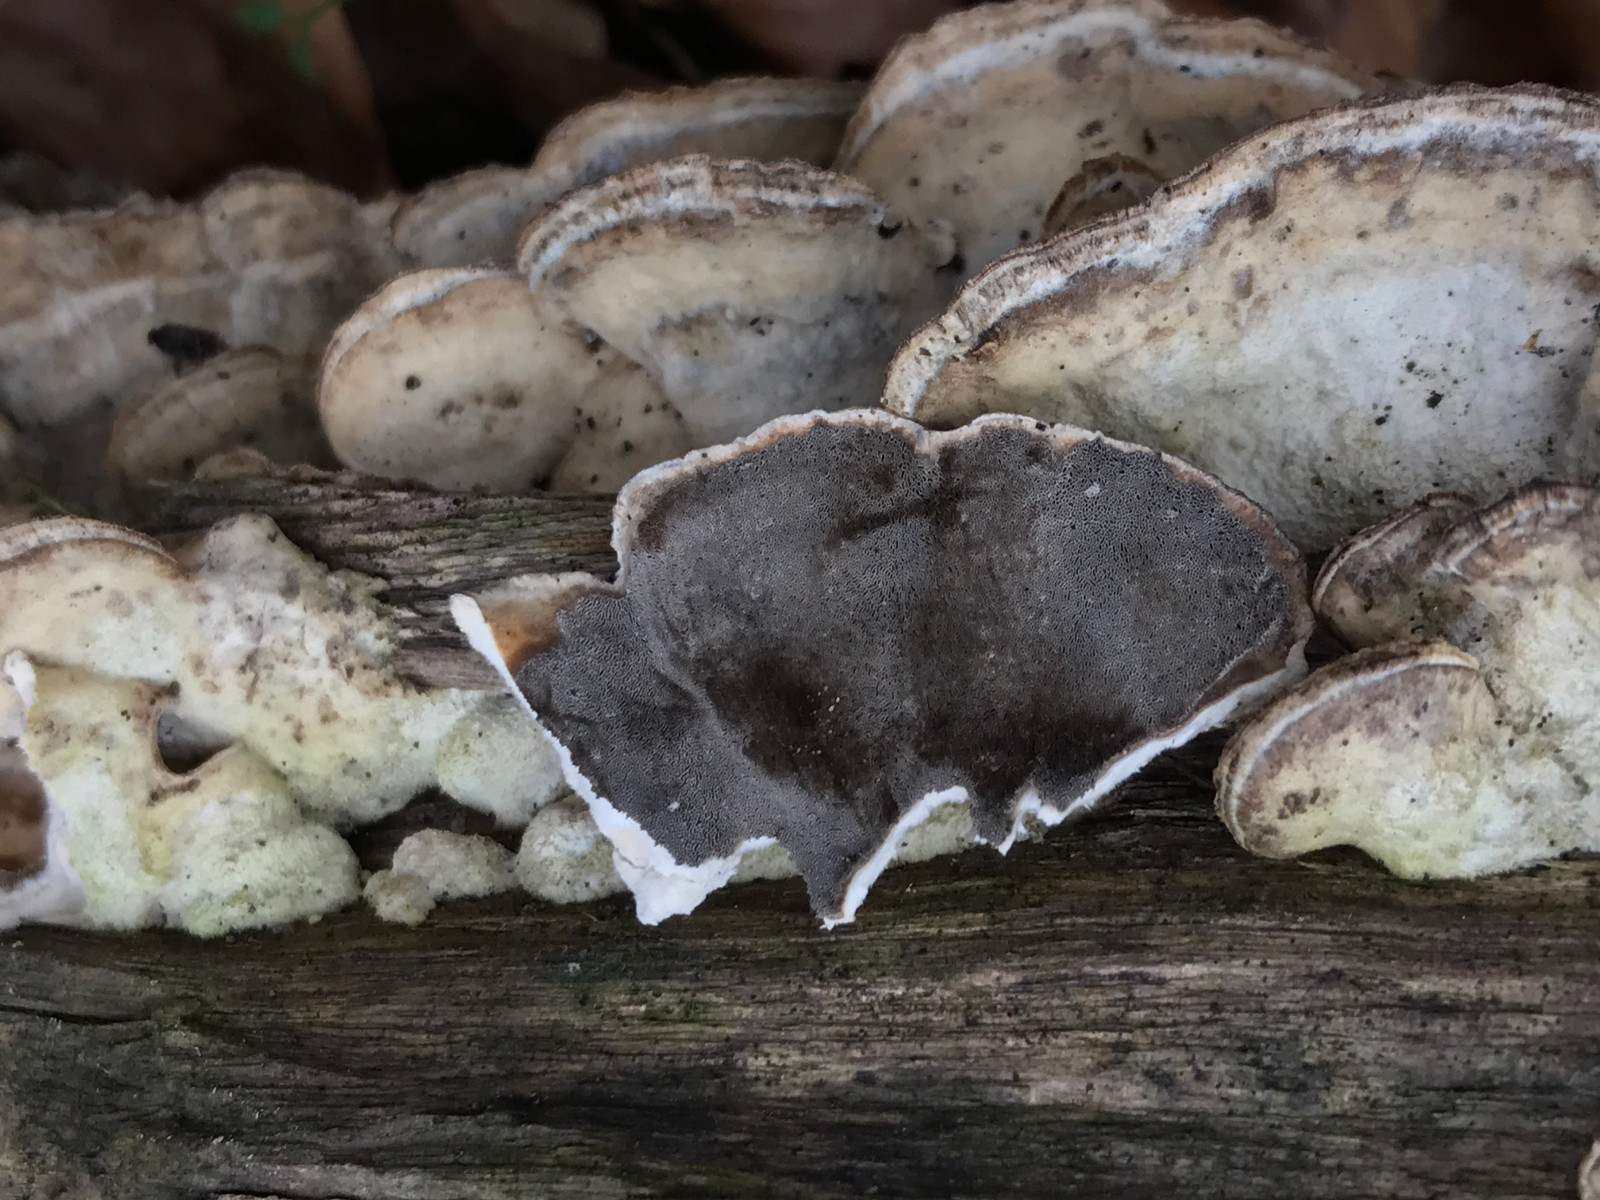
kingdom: Fungi
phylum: Basidiomycota
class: Agaricomycetes
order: Polyporales
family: Phanerochaetaceae
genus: Bjerkandera
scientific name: Bjerkandera adusta
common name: sveden sodporesvamp
